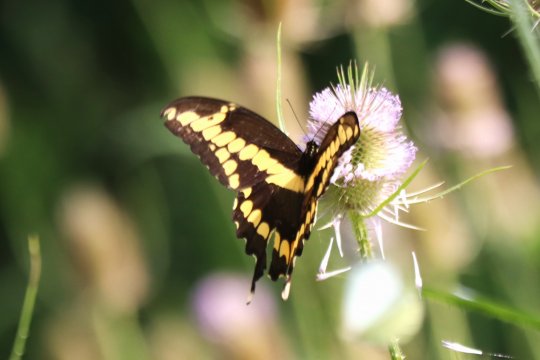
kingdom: Animalia
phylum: Arthropoda
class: Insecta
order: Lepidoptera
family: Papilionidae
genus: Papilio
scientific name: Papilio cresphontes
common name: Eastern Giant Swallowtail
